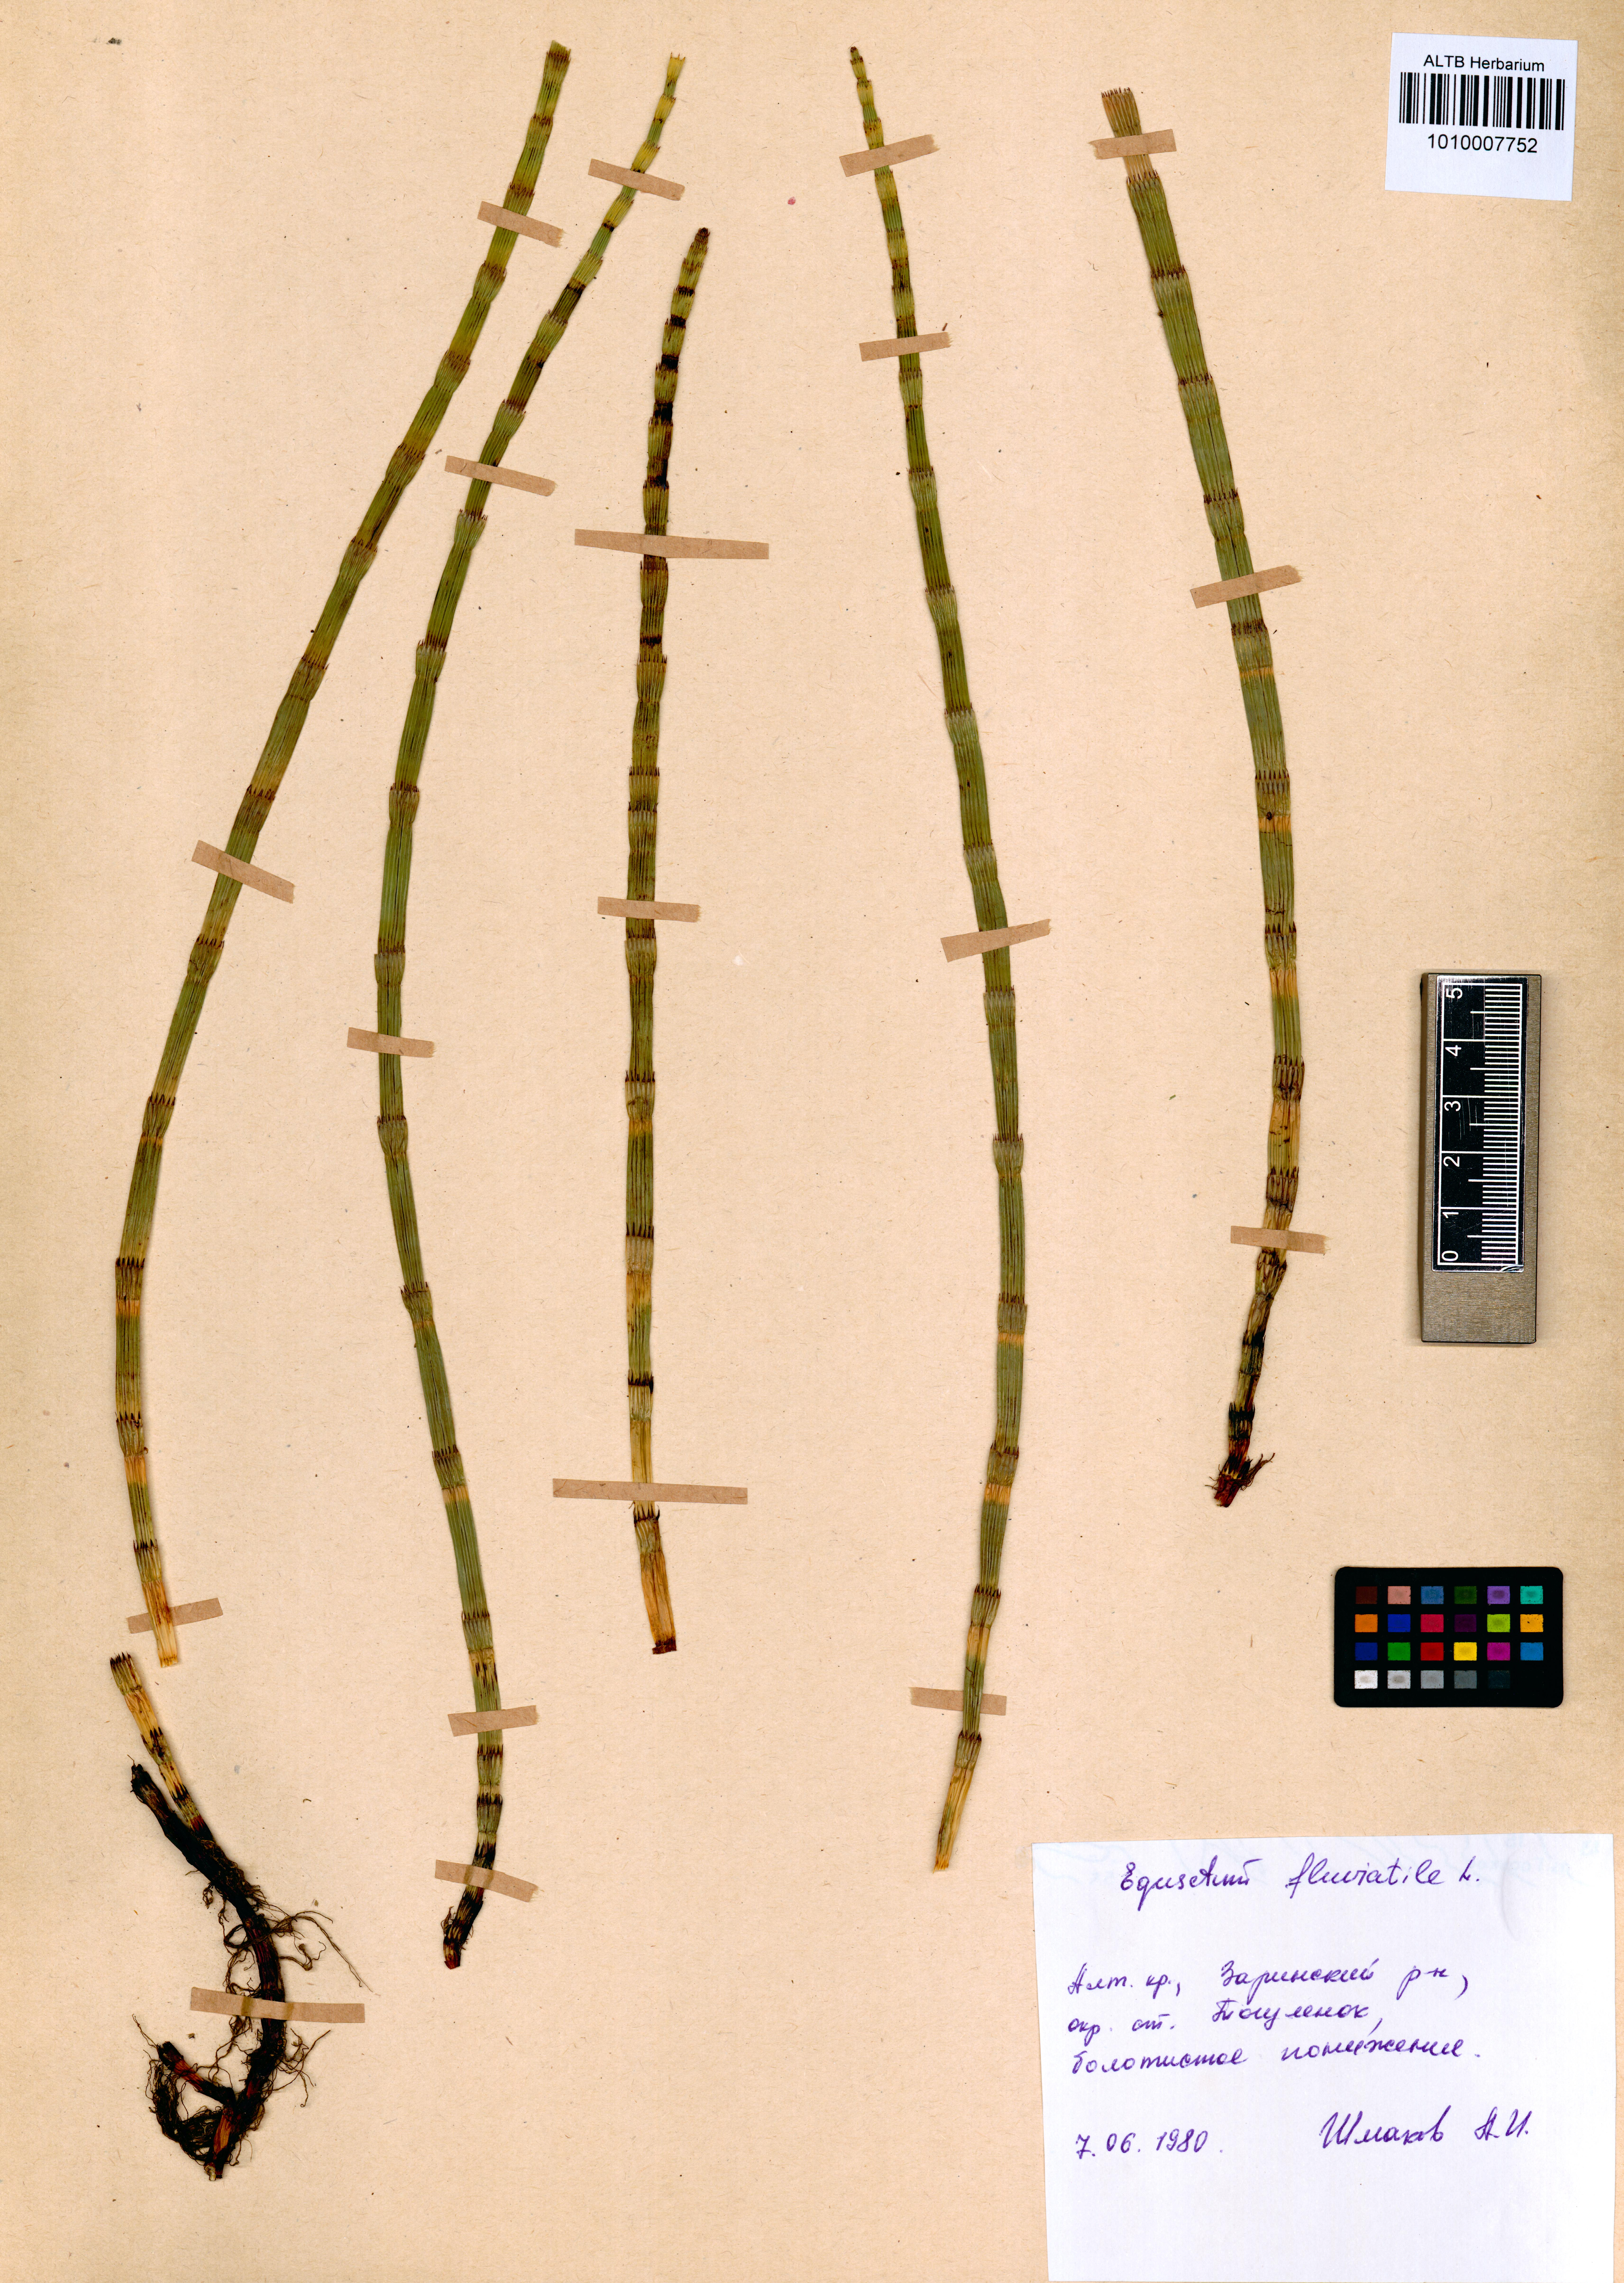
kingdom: Plantae
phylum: Tracheophyta
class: Polypodiopsida
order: Equisetales
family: Equisetaceae
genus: Equisetum
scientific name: Equisetum fluviatile
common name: Water horsetail
